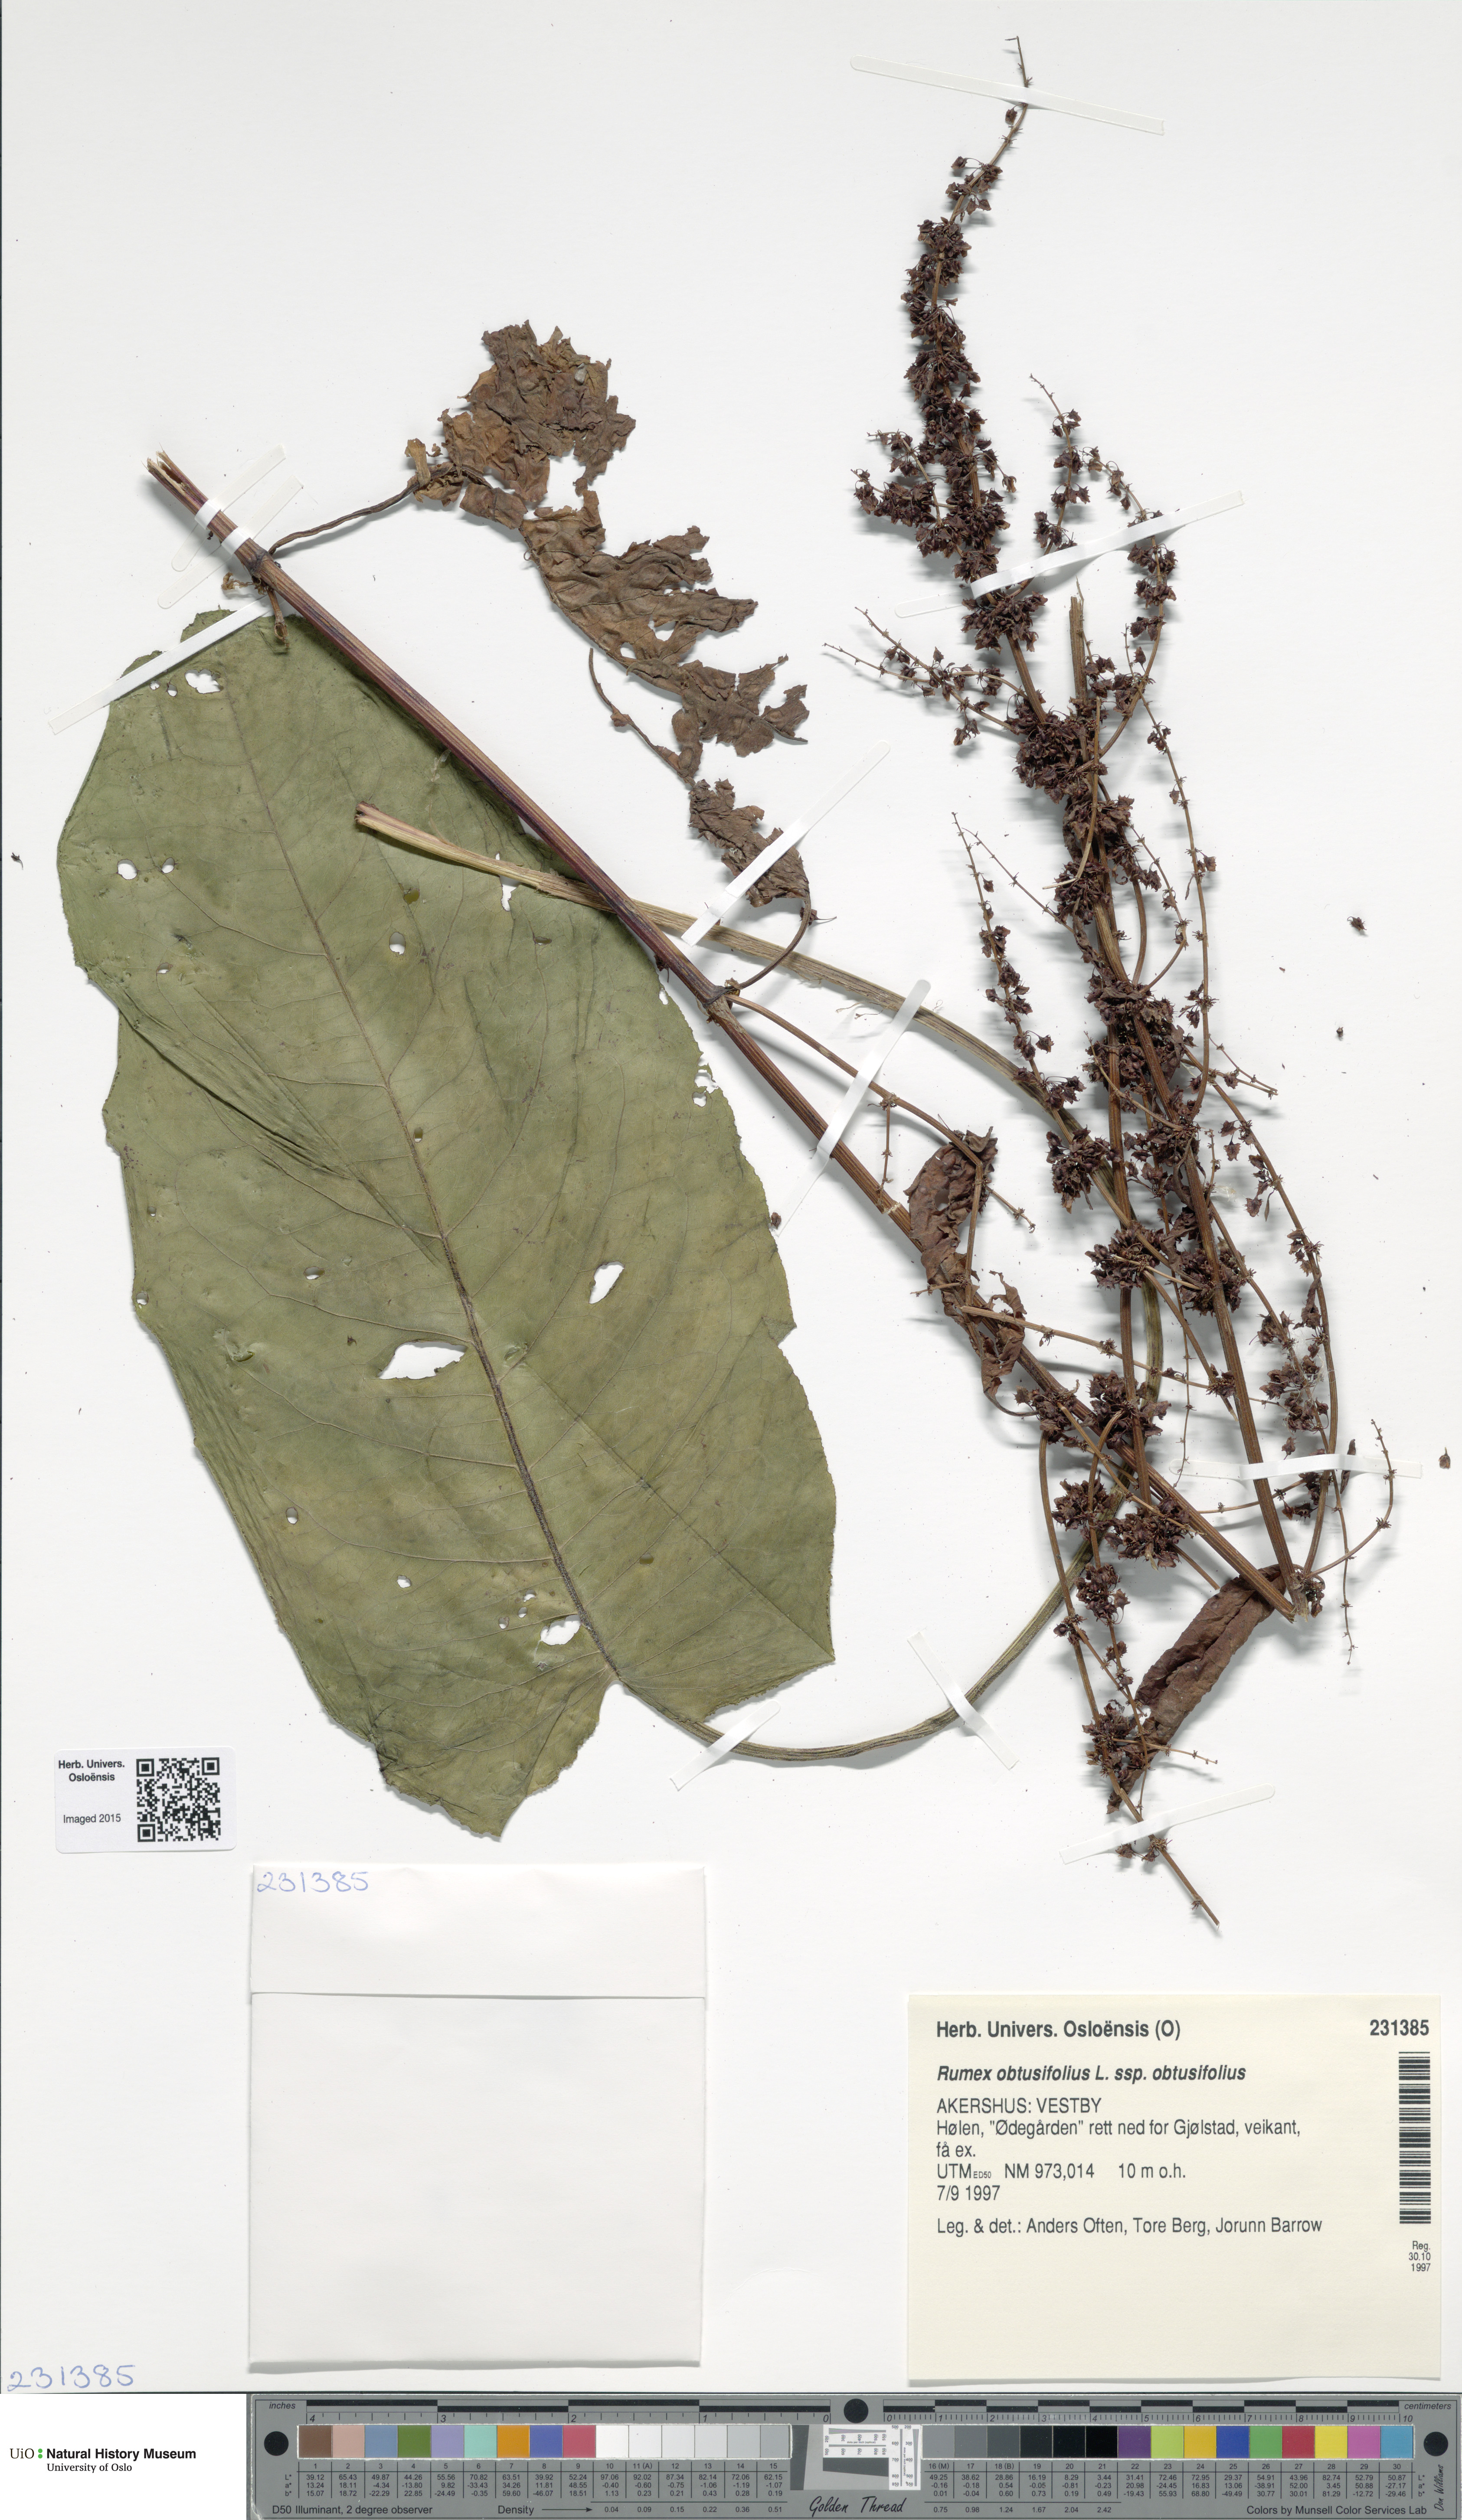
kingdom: Plantae
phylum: Tracheophyta
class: Magnoliopsida
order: Caryophyllales
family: Polygonaceae
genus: Rumex
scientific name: Rumex obtusifolius
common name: Bitter dock
